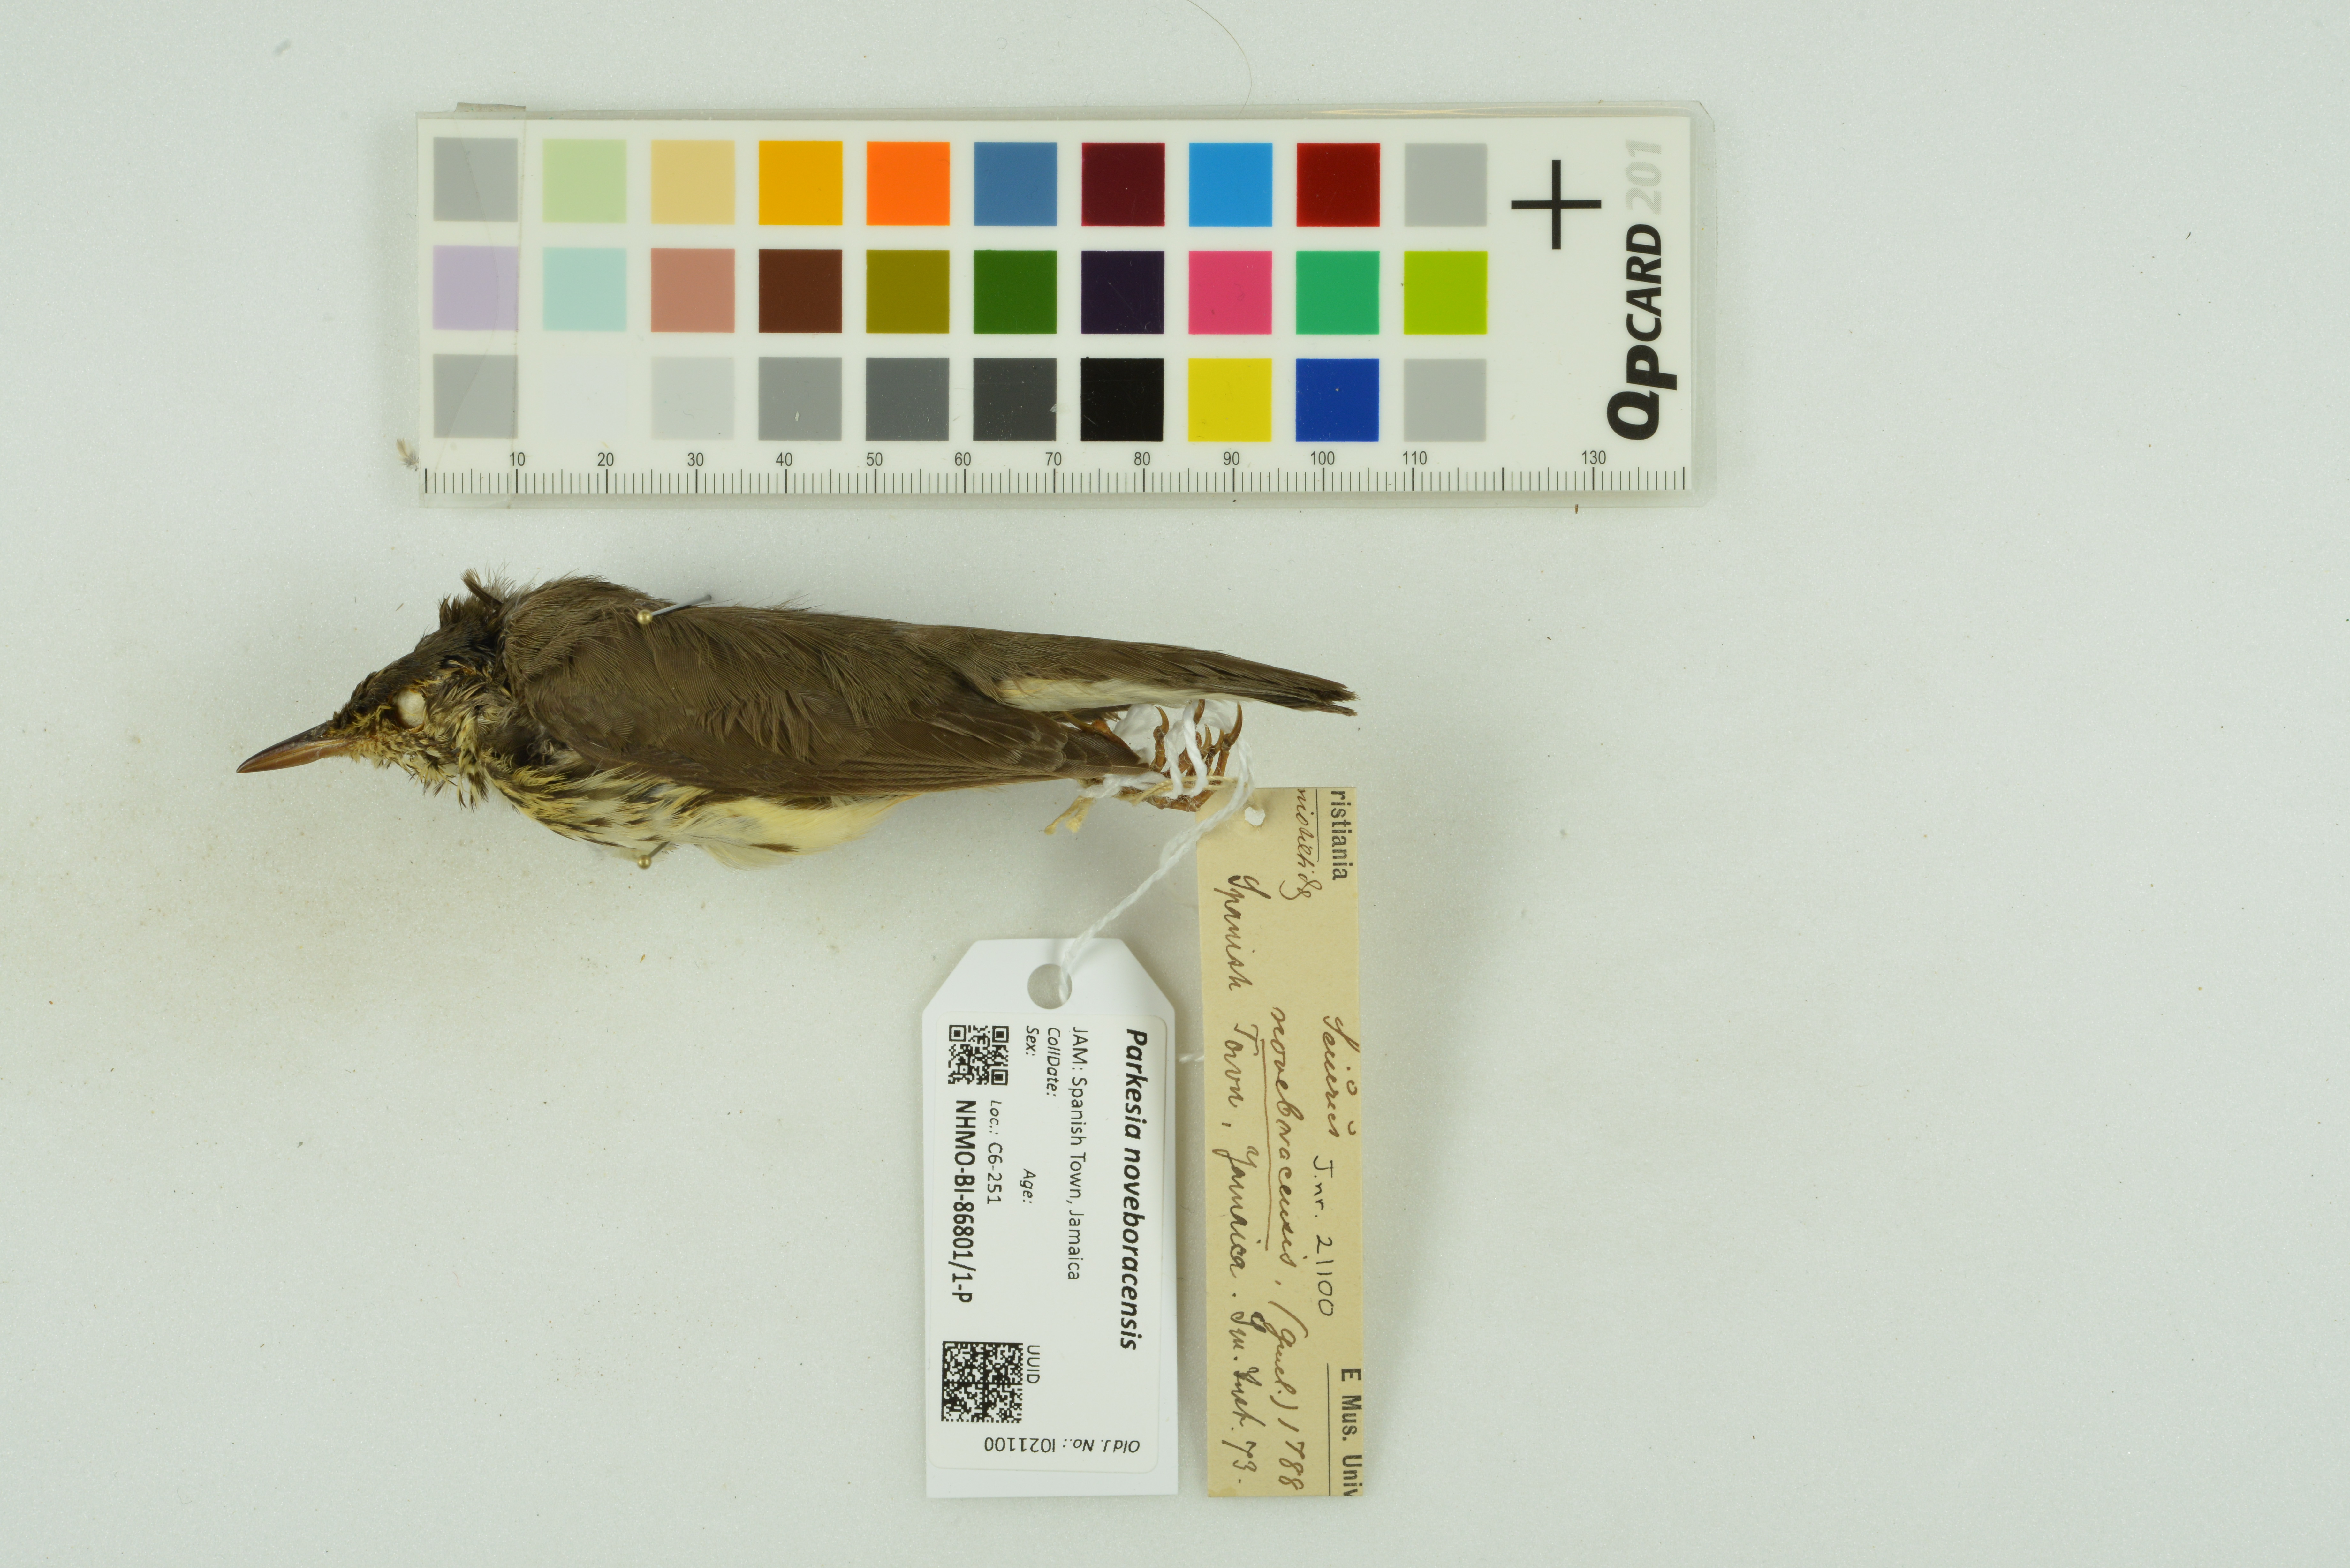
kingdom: Animalia
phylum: Chordata
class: Aves
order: Passeriformes
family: Parulidae
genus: Parkesia
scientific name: Parkesia noveboracensis
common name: Northern waterthrush
